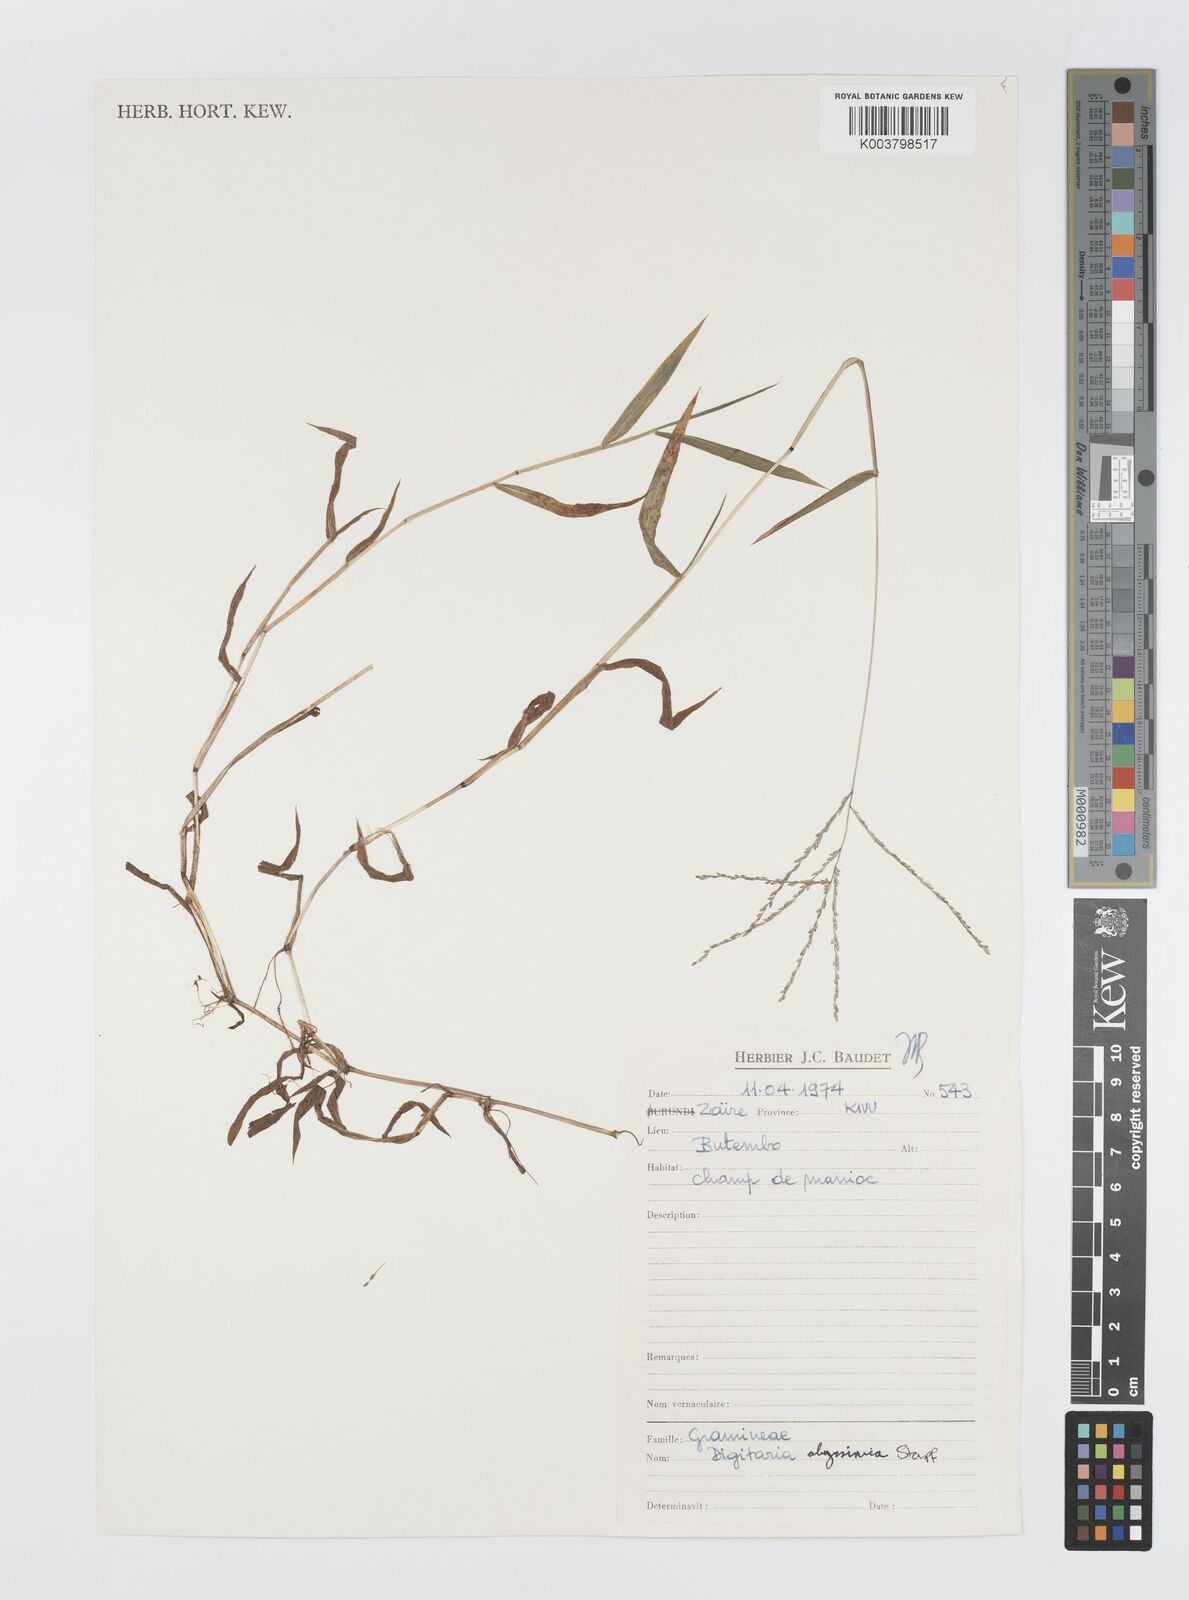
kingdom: Plantae
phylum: Tracheophyta
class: Liliopsida
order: Poales
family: Poaceae
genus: Digitaria
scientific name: Digitaria abyssinica
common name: African couchgrass
